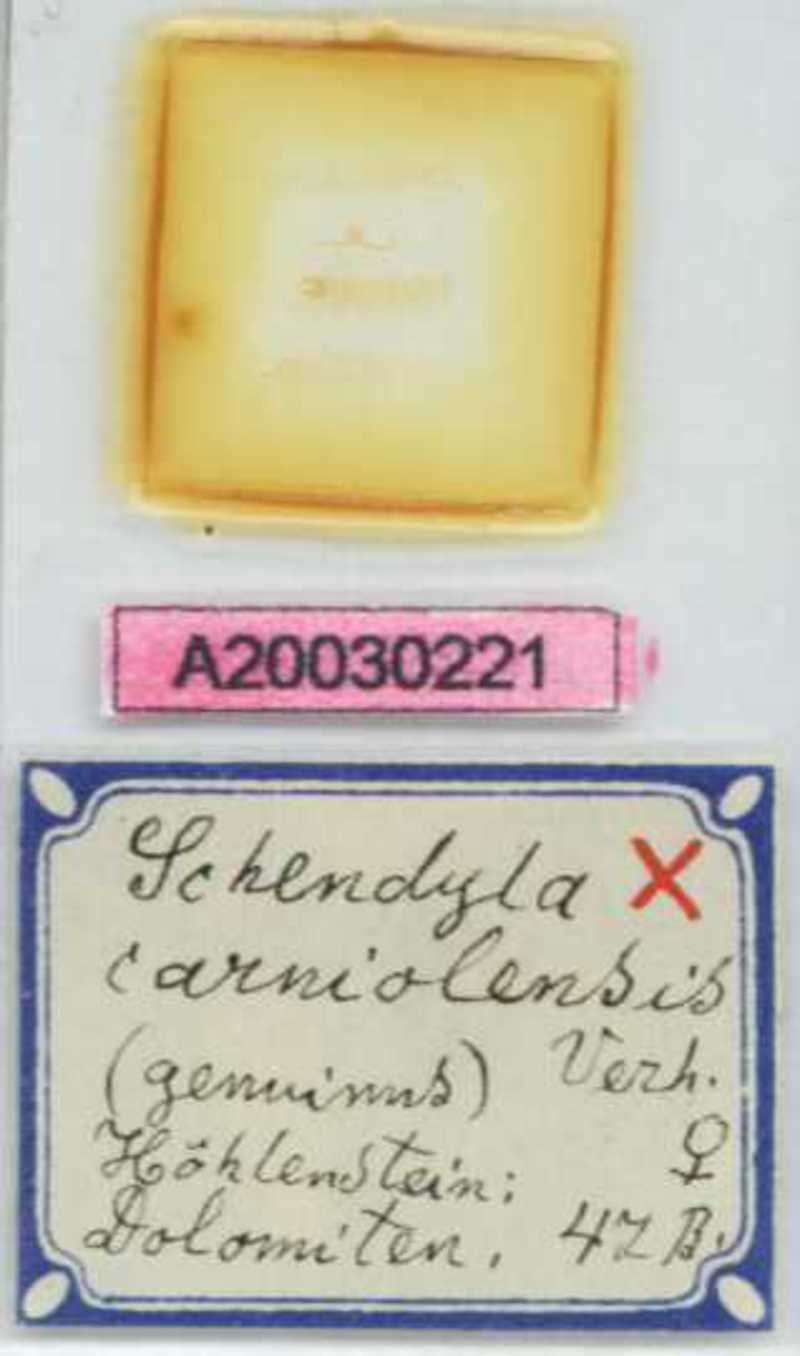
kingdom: Animalia
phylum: Arthropoda
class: Chilopoda
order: Geophilomorpha
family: Schendylidae
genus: Schendyla
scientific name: Schendyla carniolensis
